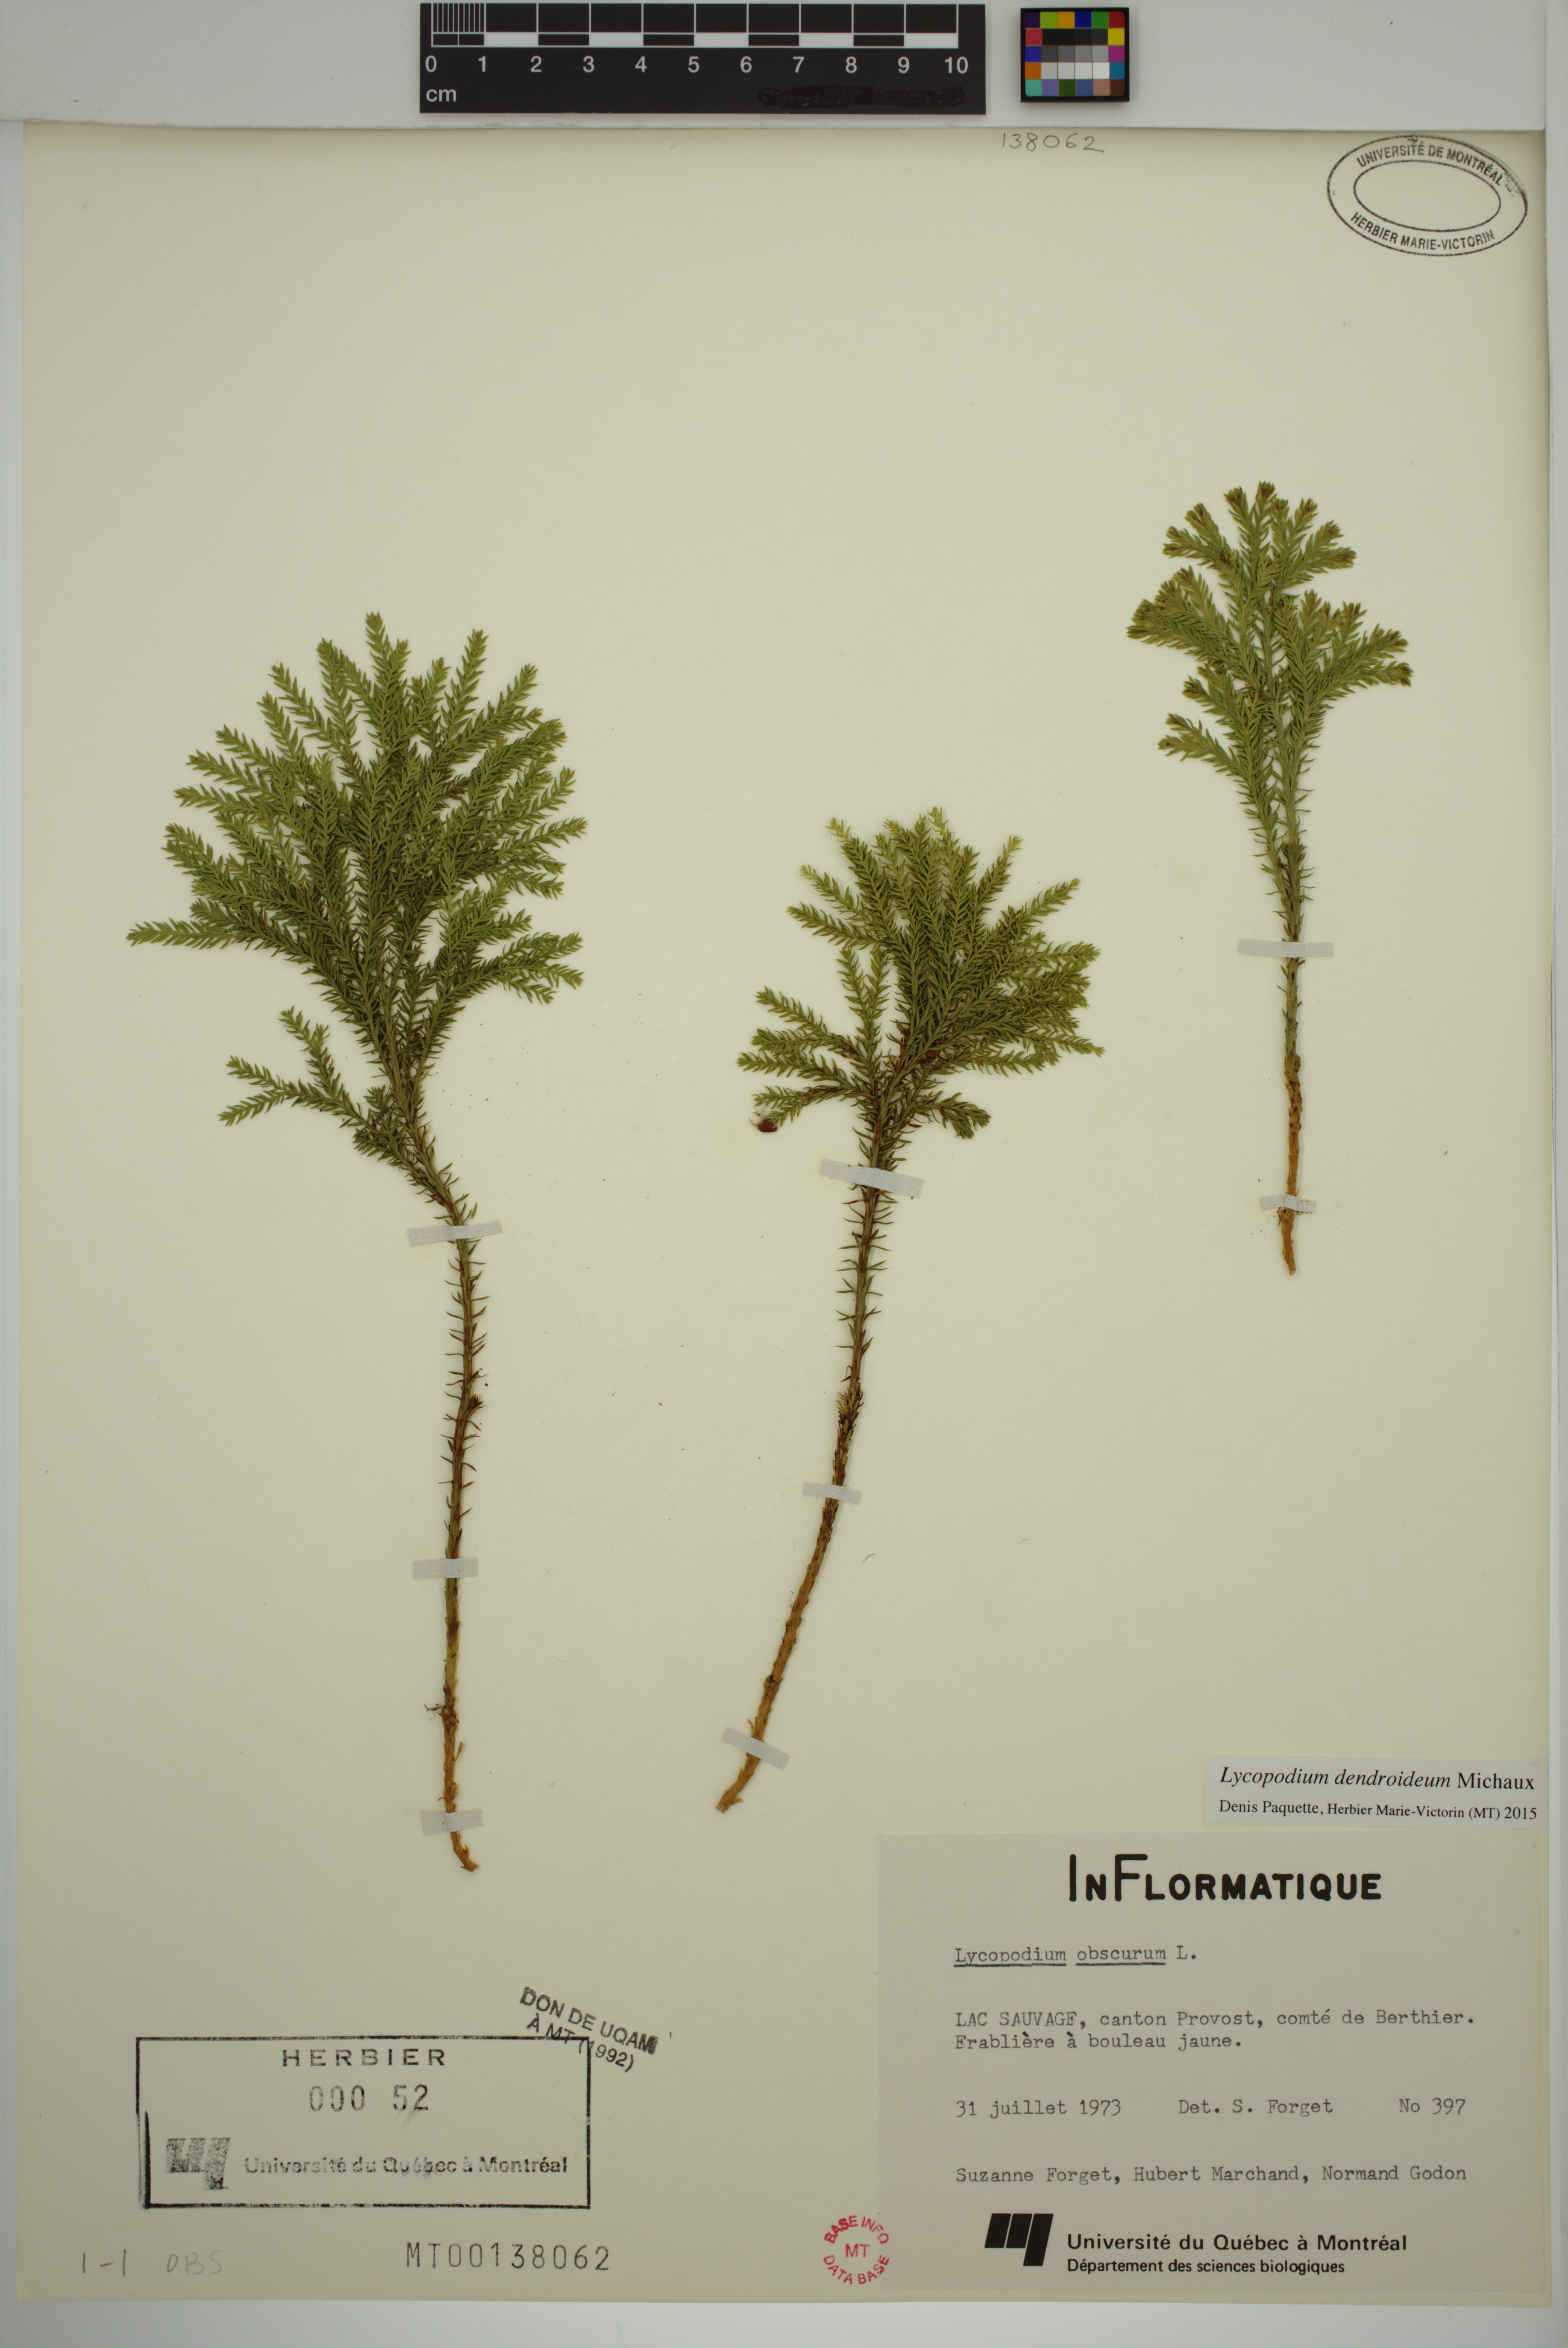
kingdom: Plantae
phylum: Tracheophyta
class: Lycopodiopsida
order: Lycopodiales
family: Lycopodiaceae
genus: Dendrolycopodium
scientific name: Dendrolycopodium dendroideum
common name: Northern tree-clubmoss
